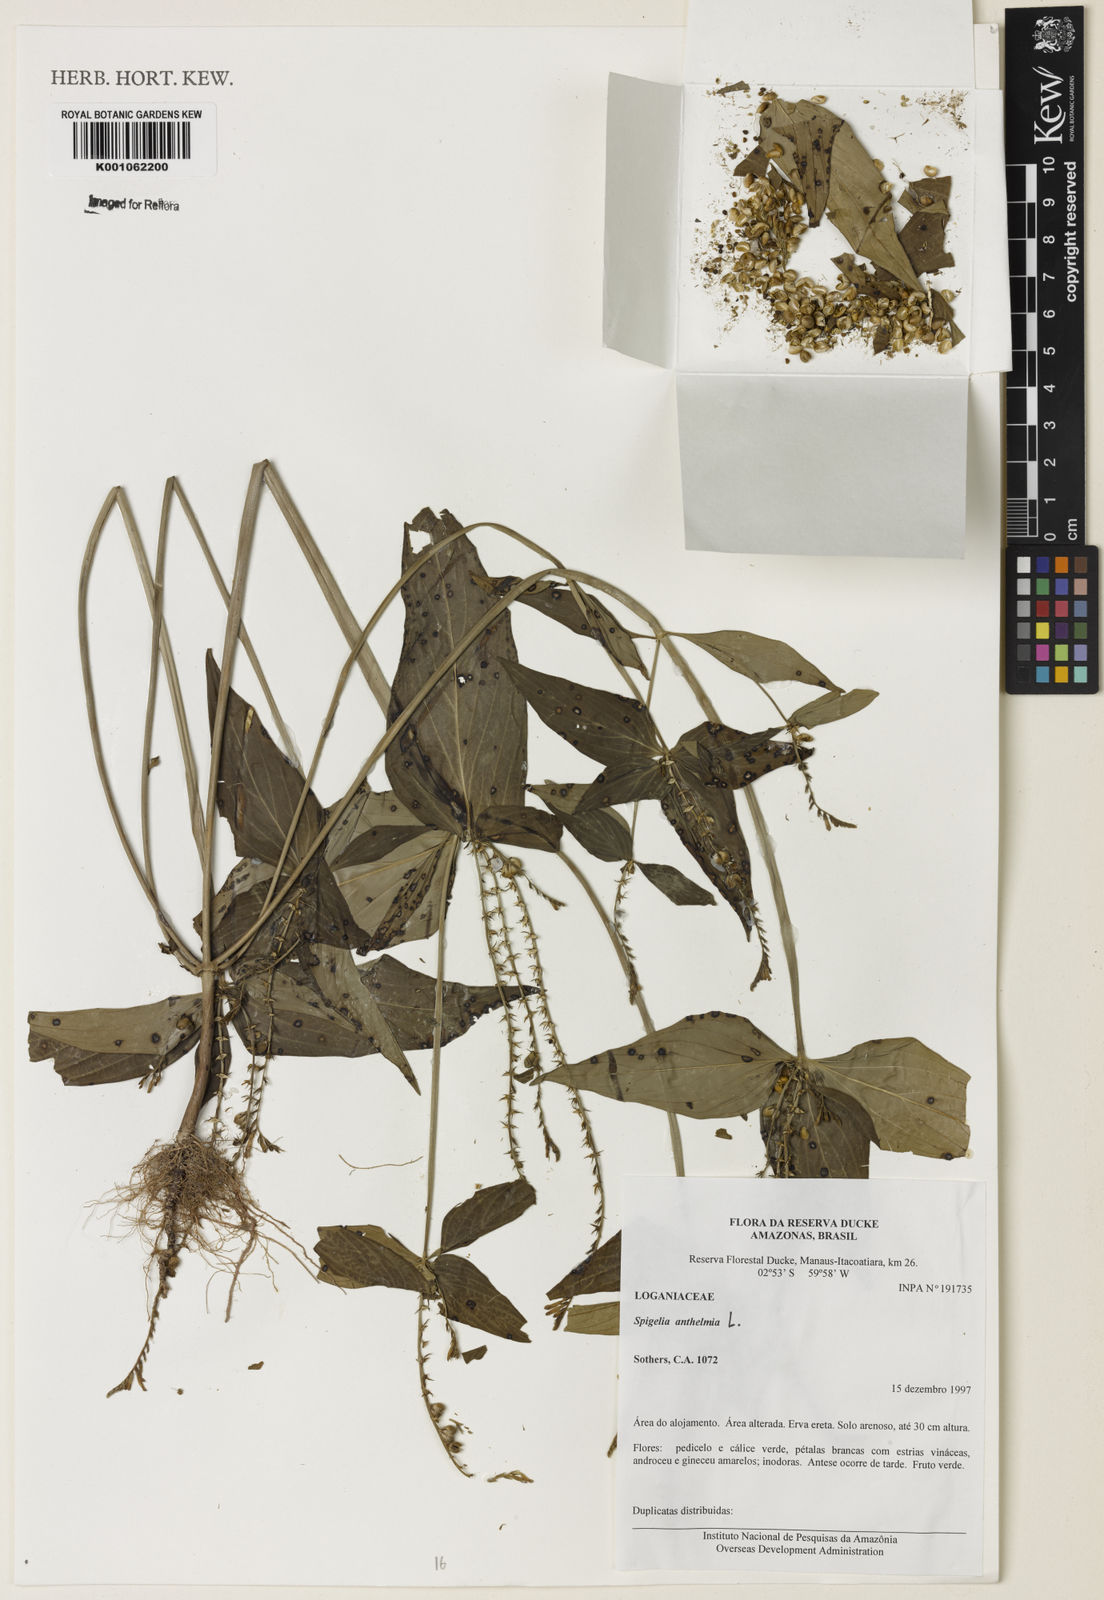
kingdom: Plantae
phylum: Tracheophyta
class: Magnoliopsida
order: Gentianales
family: Loganiaceae
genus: Spigelia
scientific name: Spigelia anthelmia
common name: West indian-pink
